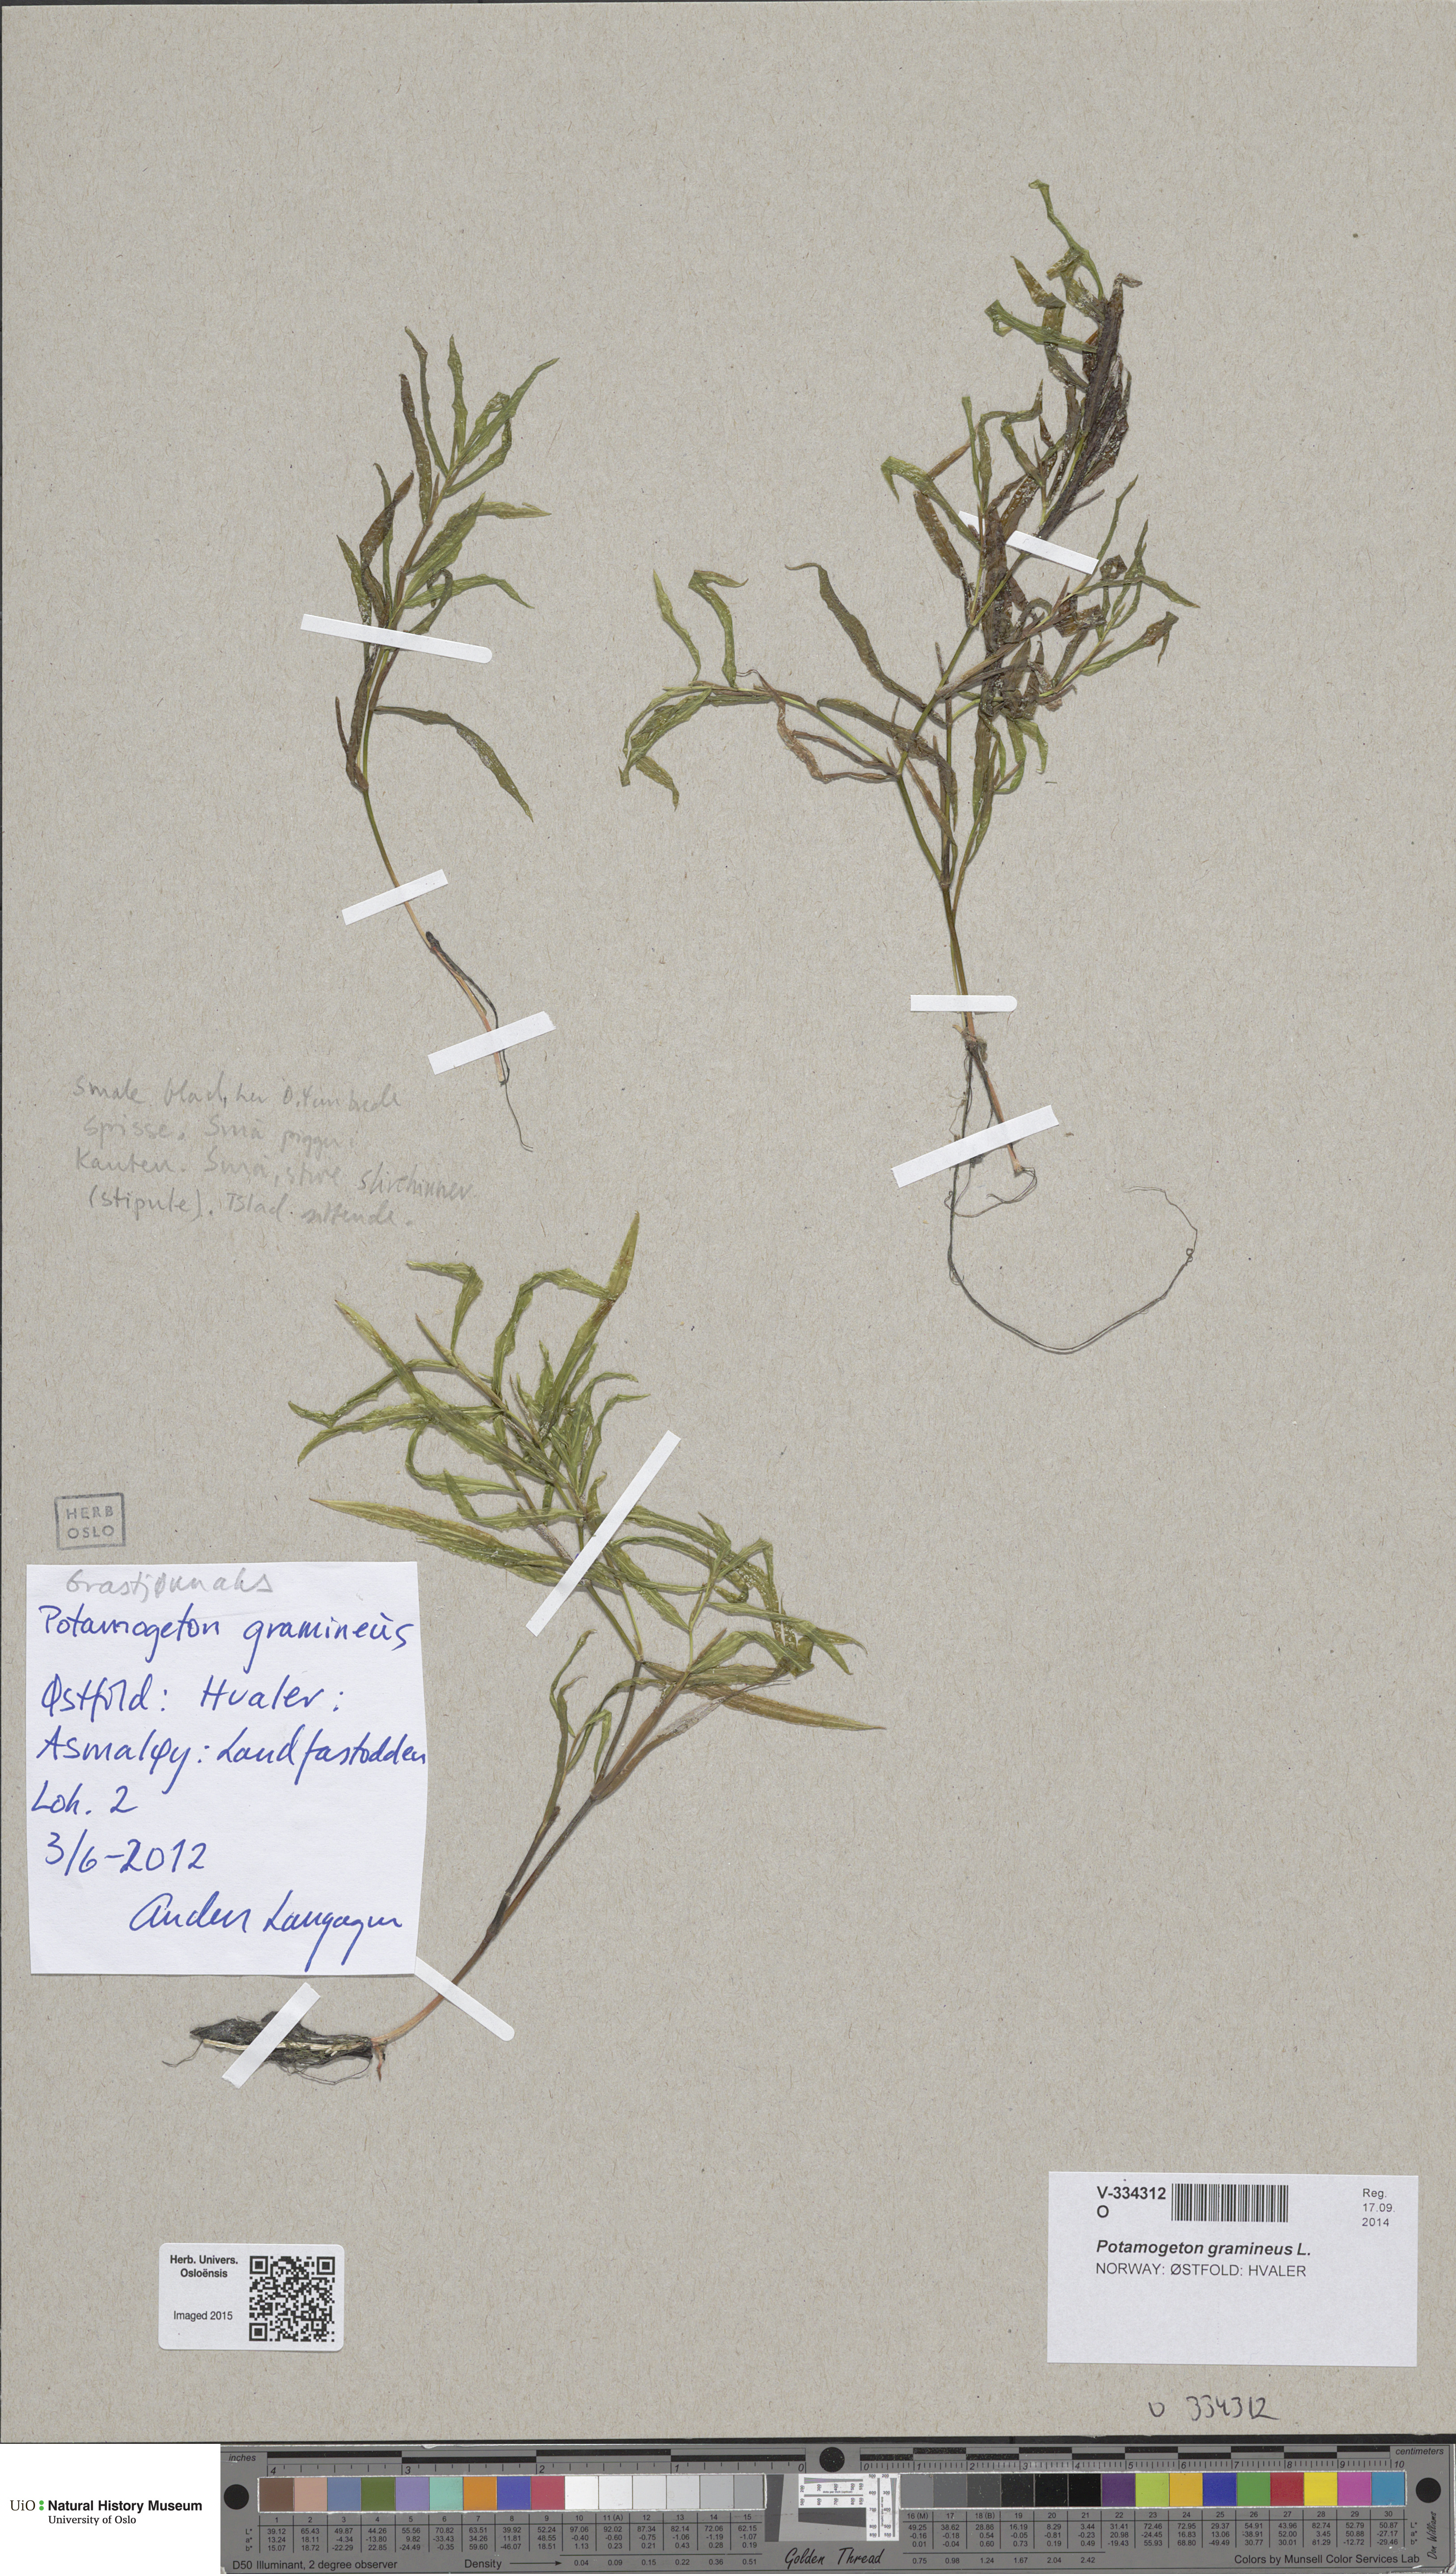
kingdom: Plantae
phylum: Tracheophyta
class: Liliopsida
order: Alismatales
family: Potamogetonaceae
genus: Potamogeton
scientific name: Potamogeton gramineus
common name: Various-leaved pondweed
